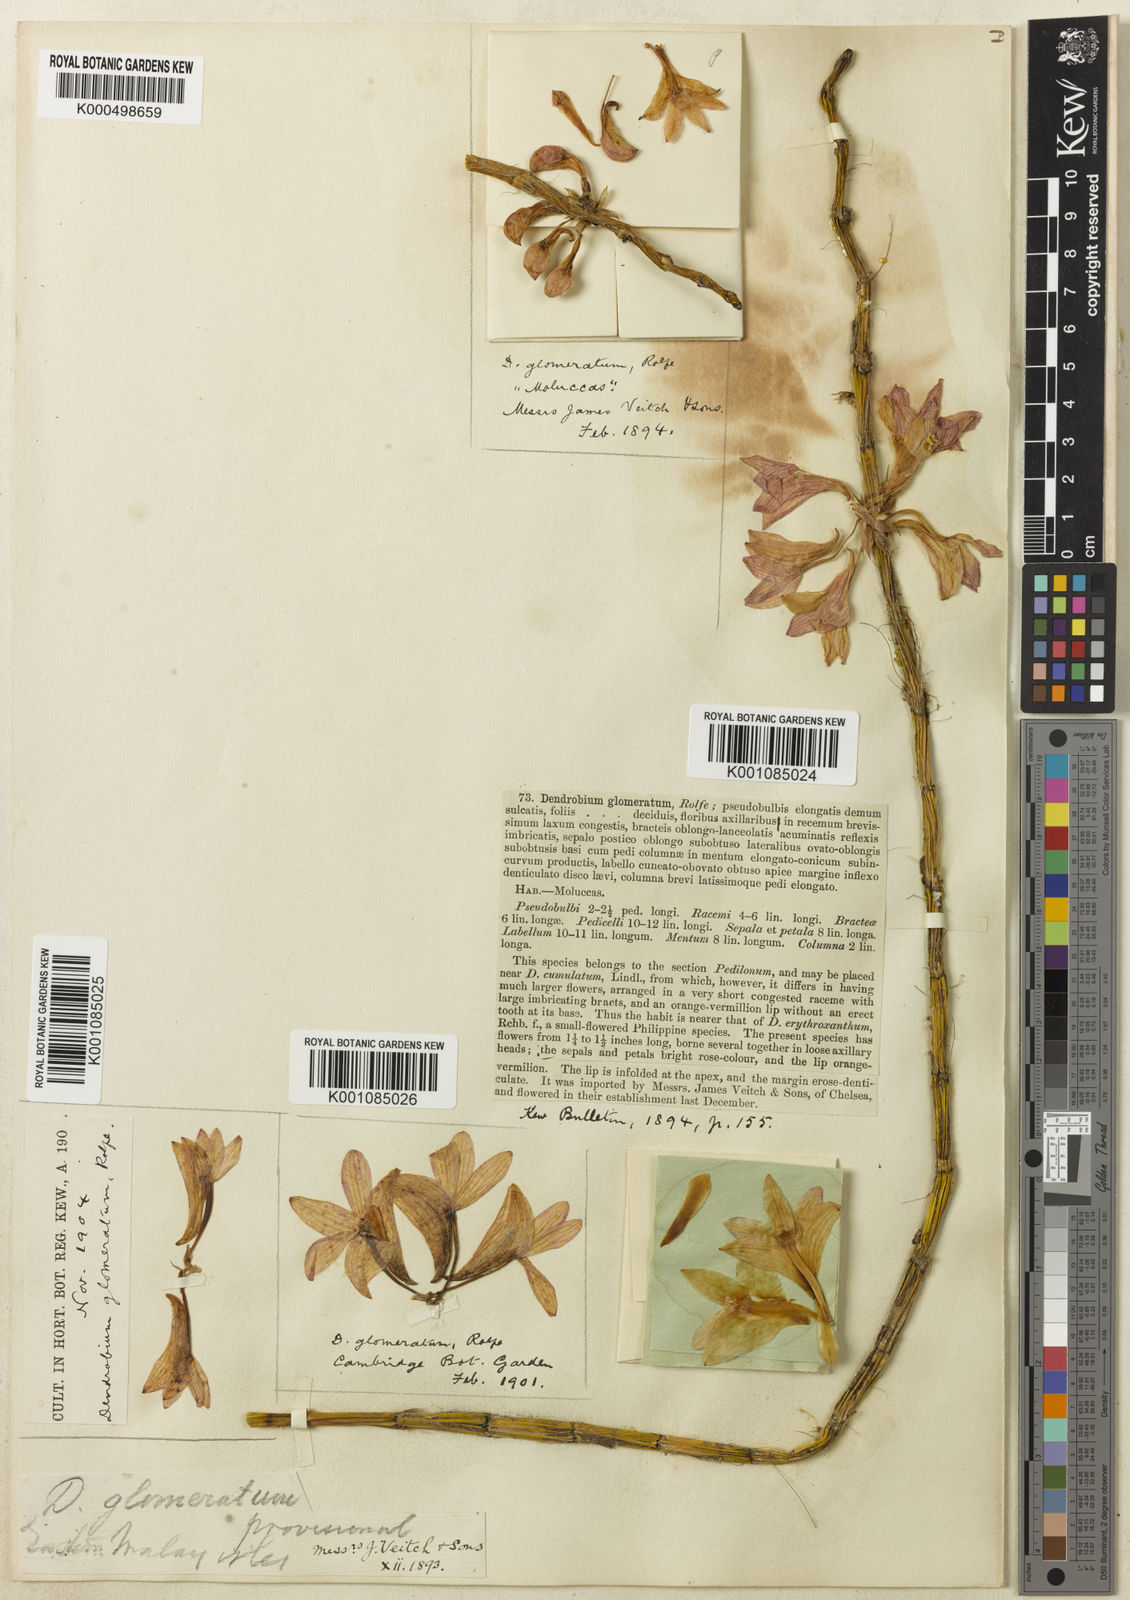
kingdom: Plantae
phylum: Tracheophyta
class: Liliopsida
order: Asparagales
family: Orchidaceae
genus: Dendrobium
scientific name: Dendrobium
